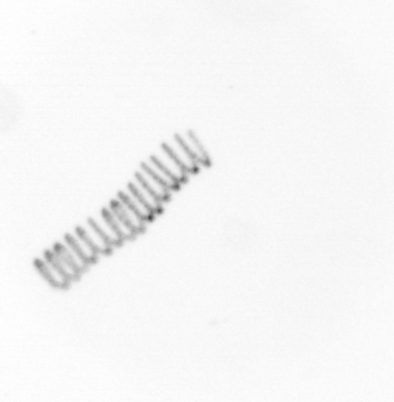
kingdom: Chromista
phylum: Ochrophyta
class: Bacillariophyceae
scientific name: Bacillariophyceae
